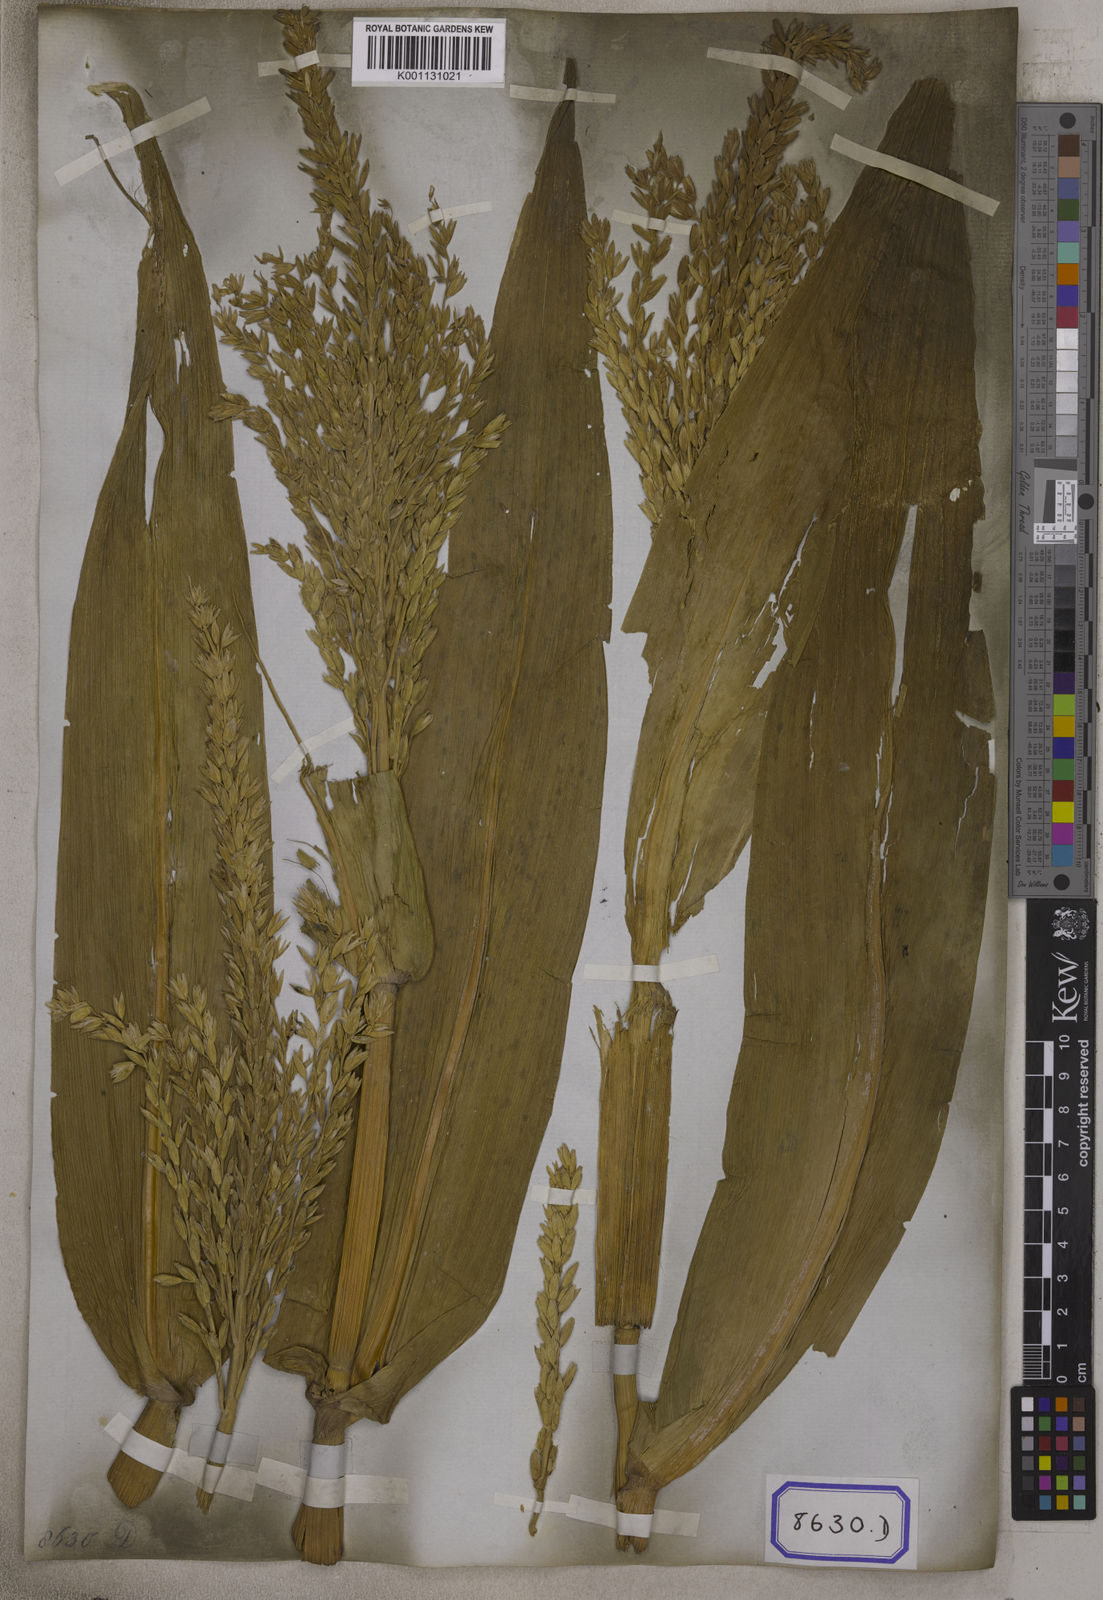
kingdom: Plantae
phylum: Tracheophyta
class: Liliopsida
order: Poales
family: Poaceae
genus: Zea
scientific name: Zea mays
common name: Maize
